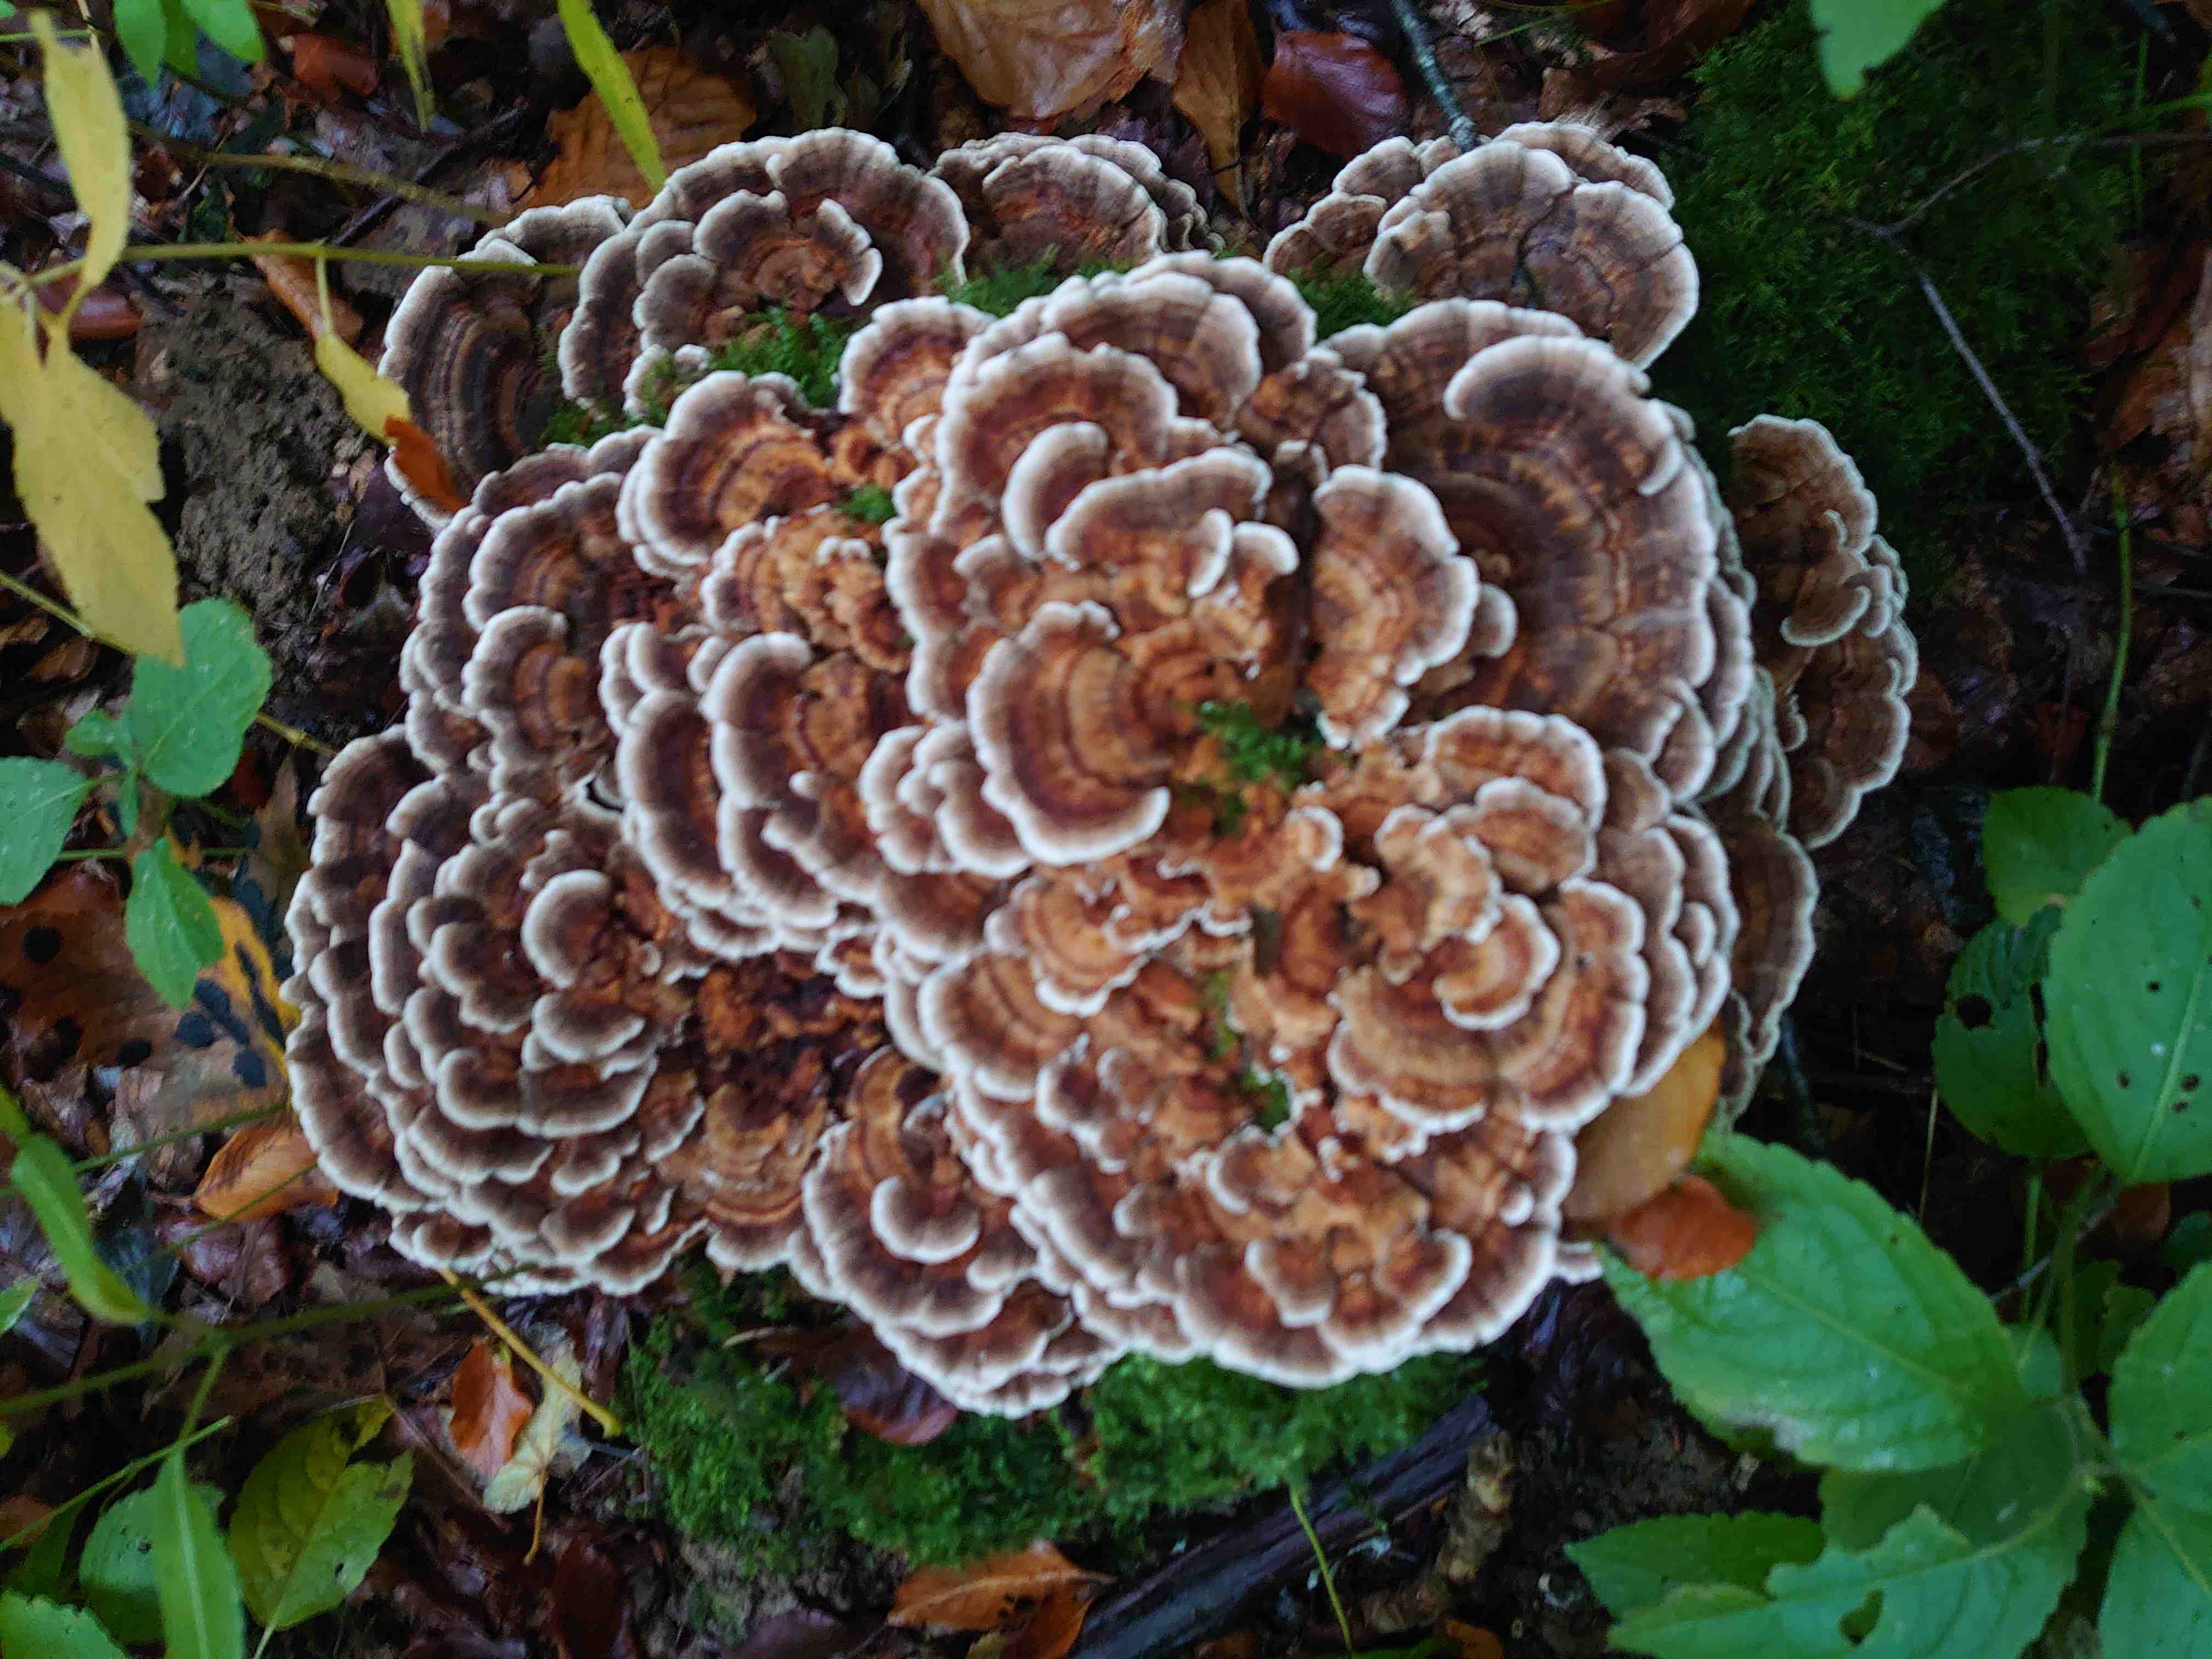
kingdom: Fungi
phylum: Basidiomycota
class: Agaricomycetes
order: Polyporales
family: Polyporaceae
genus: Trametes
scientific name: Trametes versicolor
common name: broget læderporesvamp
